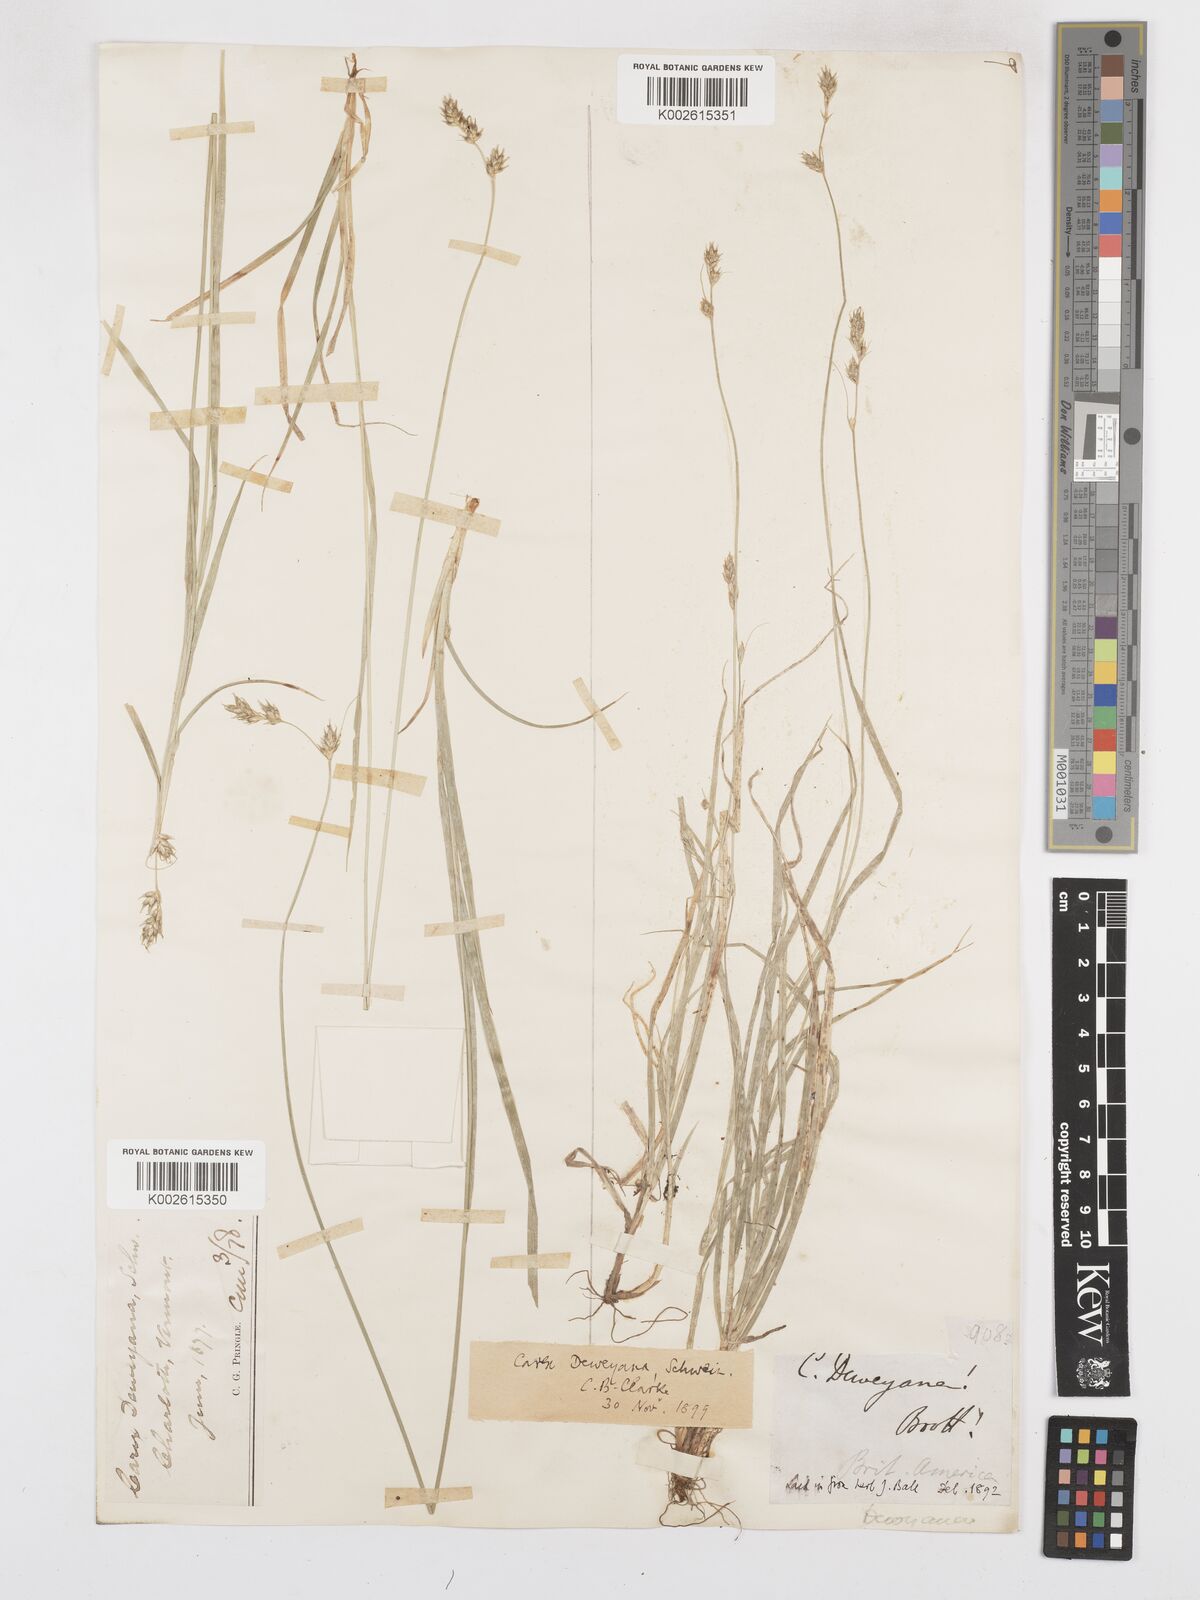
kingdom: Plantae
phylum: Tracheophyta
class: Liliopsida
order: Poales
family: Cyperaceae
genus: Carex
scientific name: Carex deweyana
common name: Dewey's sedge
